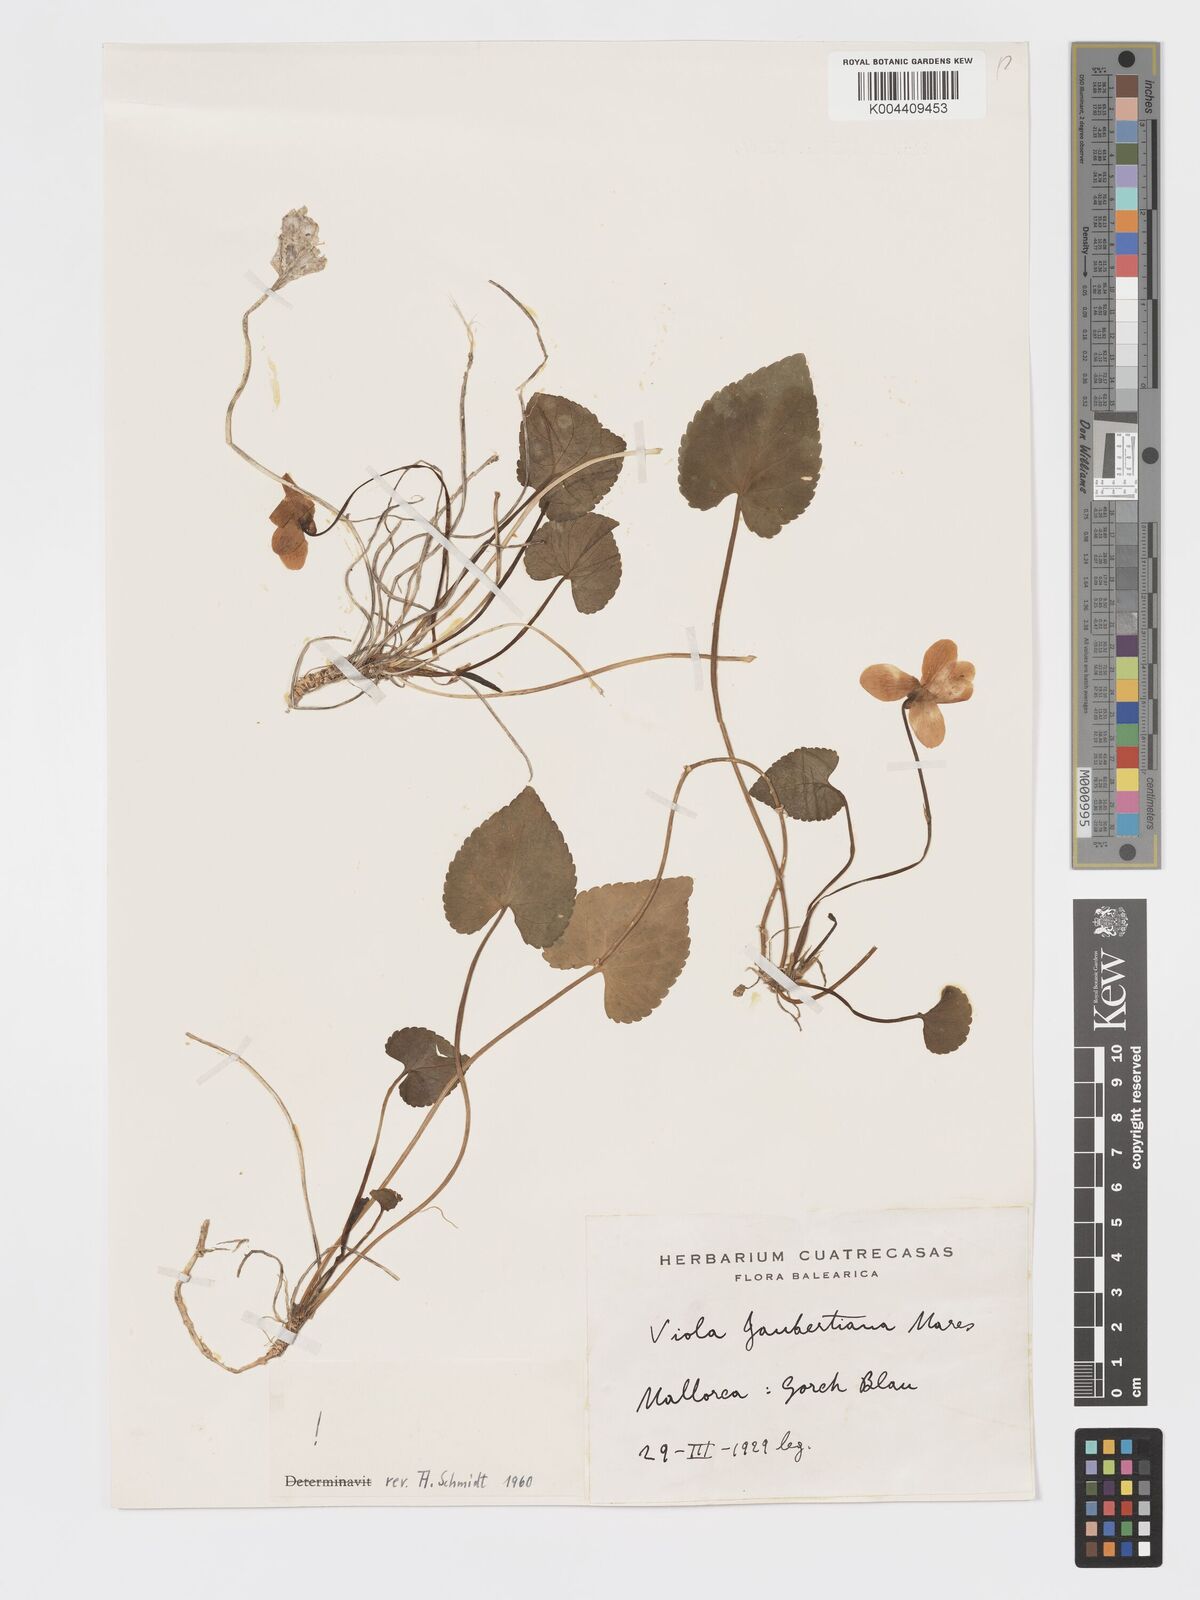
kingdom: Plantae
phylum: Tracheophyta
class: Magnoliopsida
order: Malpighiales
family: Violaceae
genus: Viola
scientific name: Viola jaubertiana
